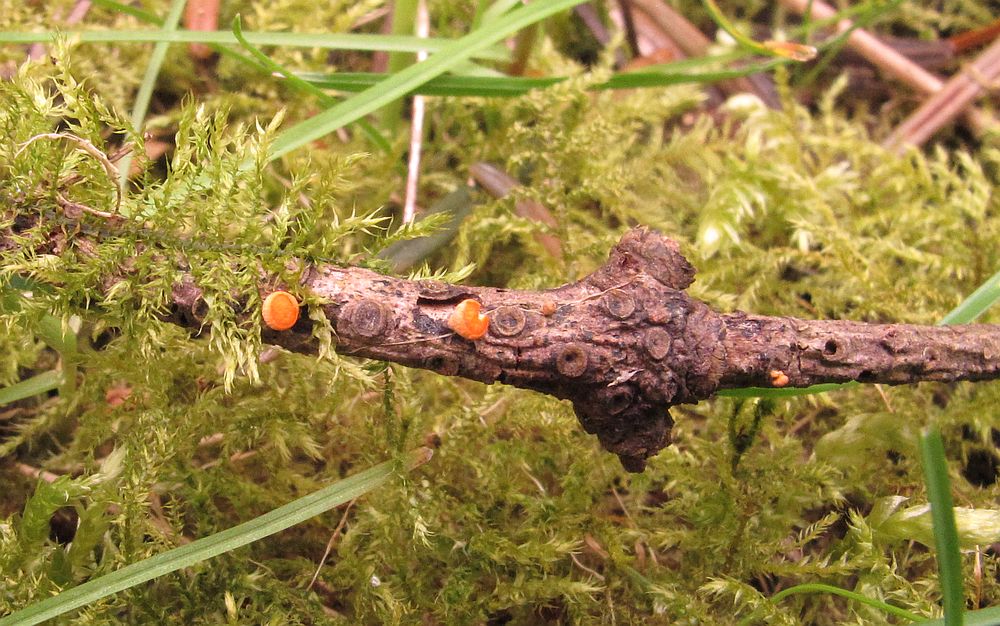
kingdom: Fungi
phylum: Ascomycota
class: Pezizomycetes
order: Pezizales
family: Sarcoscyphaceae
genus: Pithya
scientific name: Pithya cupressina
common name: lille dukatbæger
